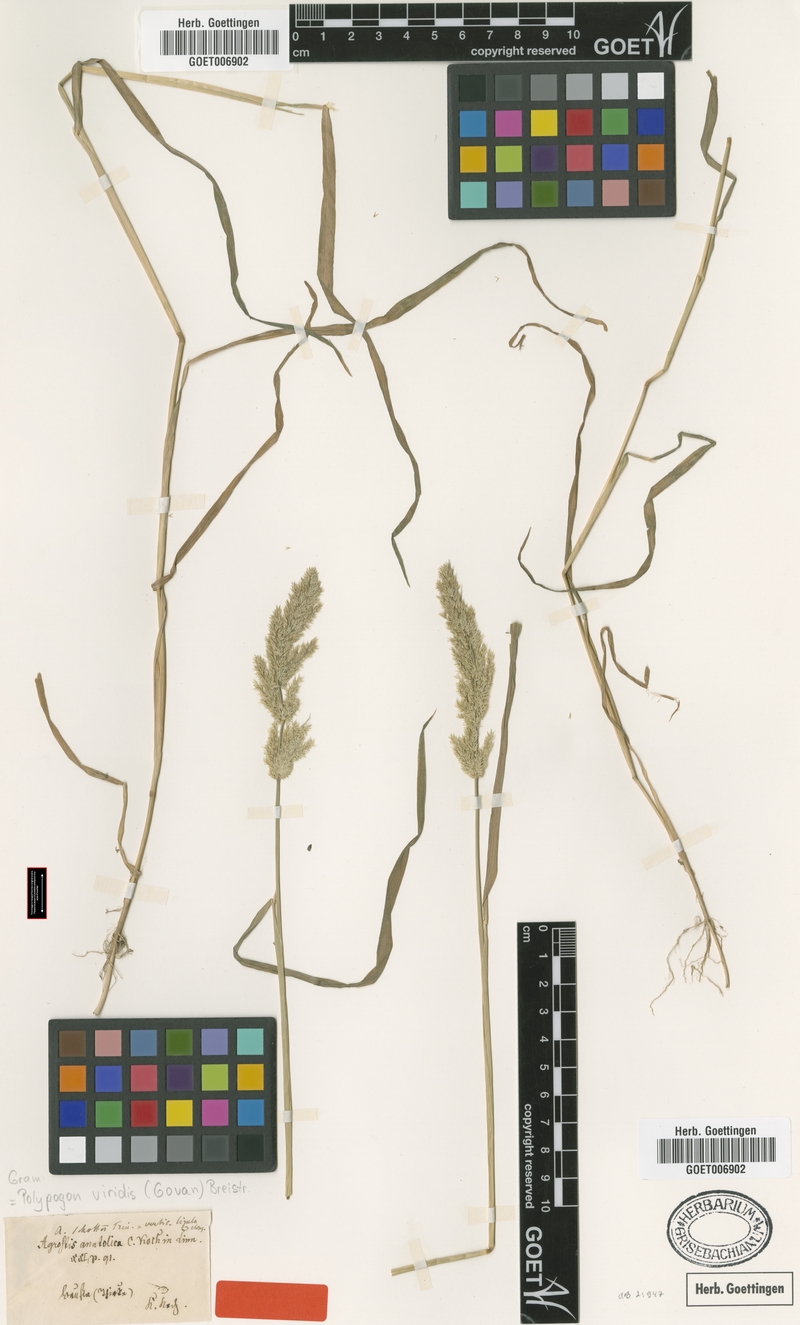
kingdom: Plantae
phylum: Tracheophyta
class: Liliopsida
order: Poales
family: Poaceae
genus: Polypogon
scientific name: Polypogon viridis
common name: Water bent
